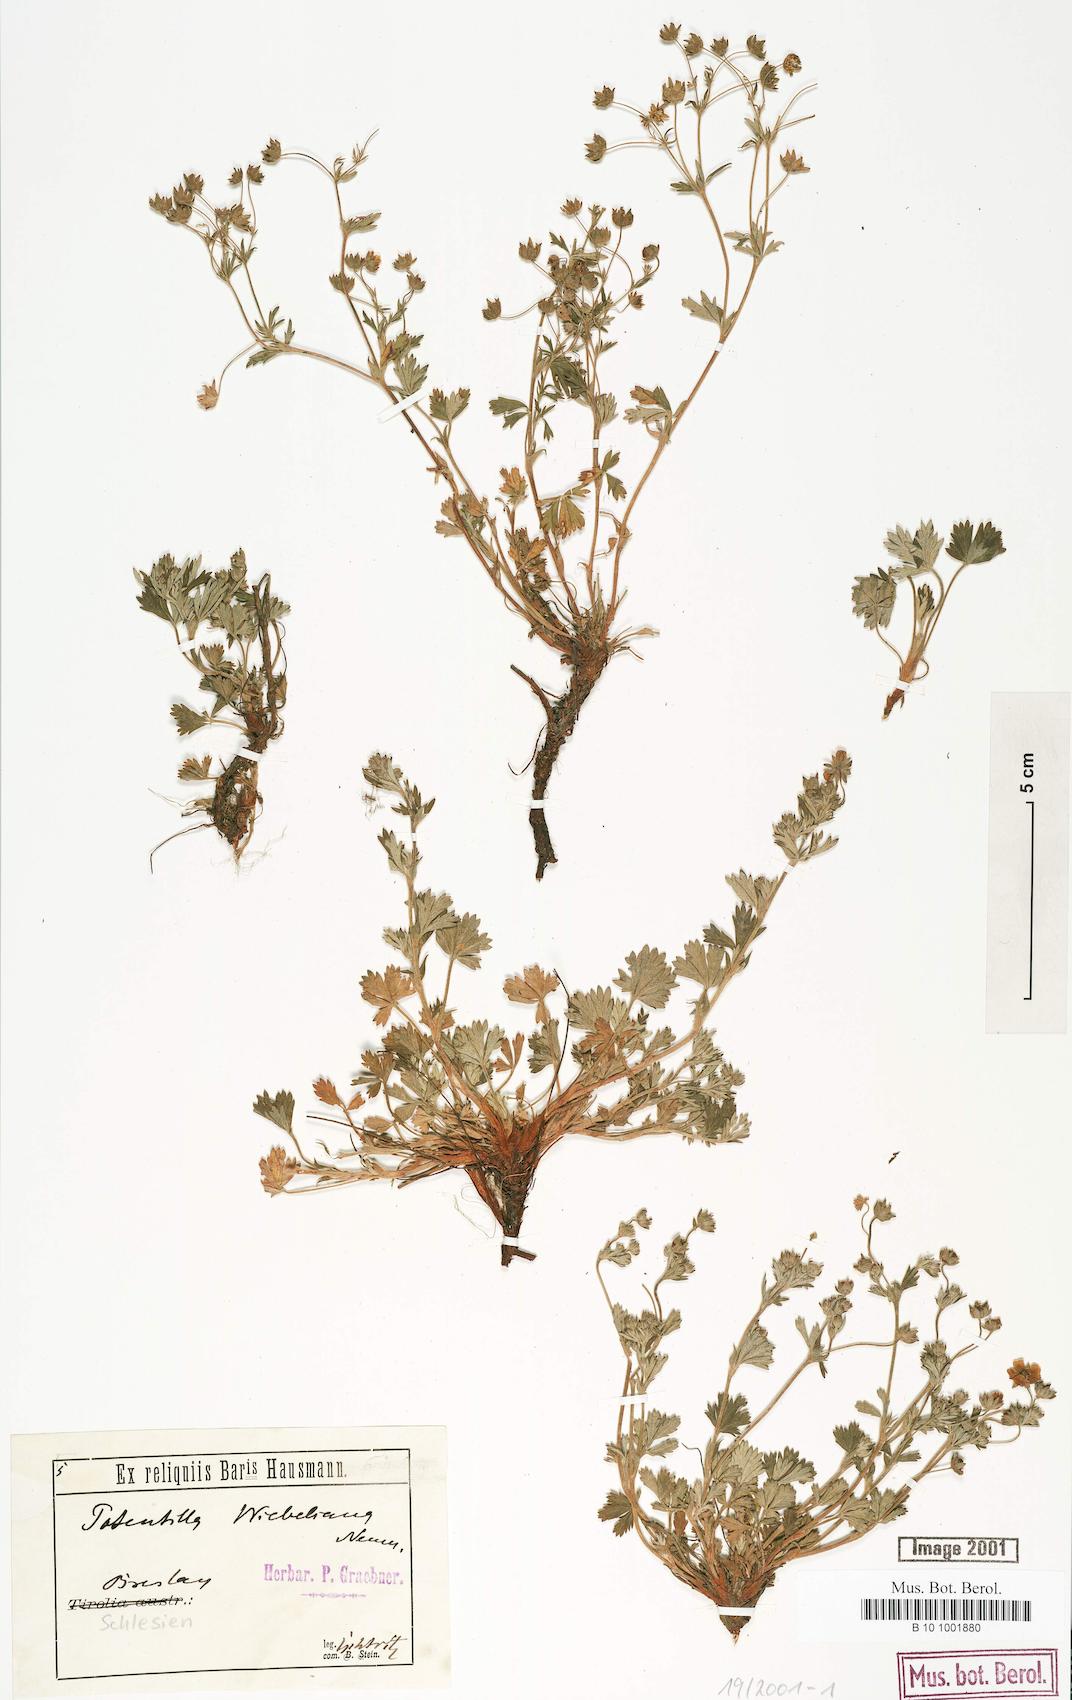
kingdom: Plantae
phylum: Tracheophyta
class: Magnoliopsida
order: Rosales
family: Rosaceae
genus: Potentilla
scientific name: Potentilla collina
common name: Palmleaf cinquefoil
